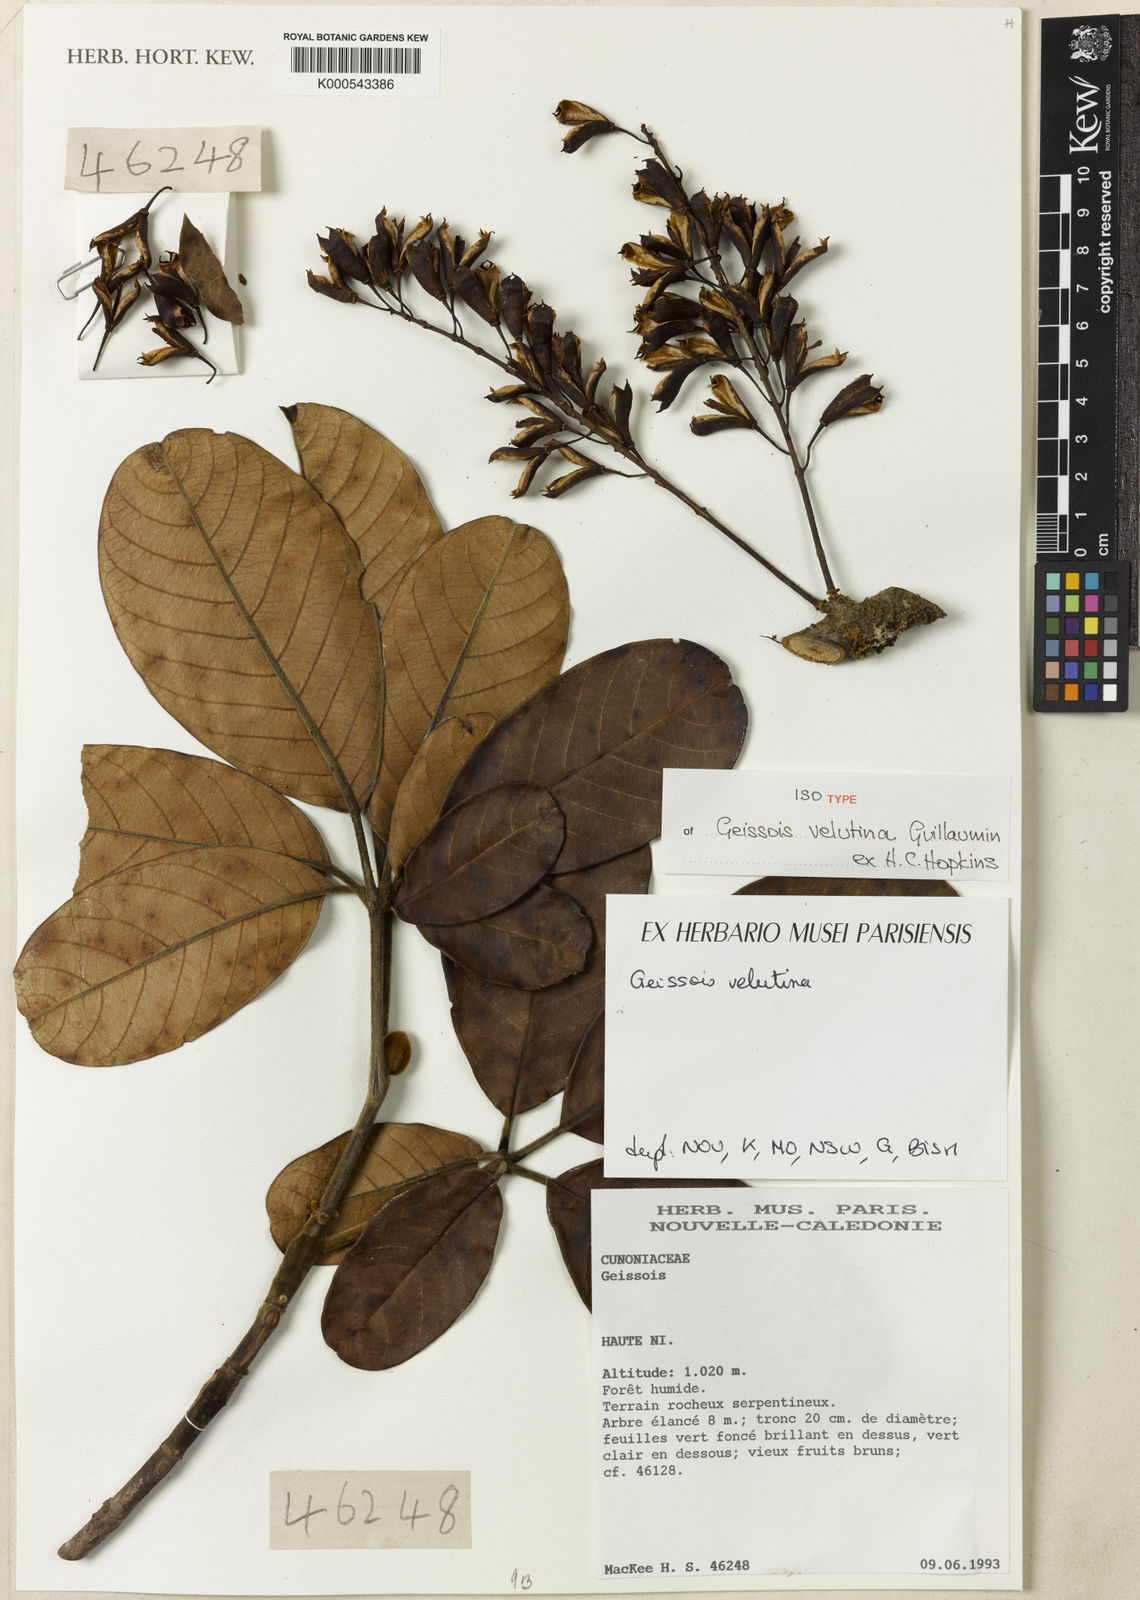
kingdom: Plantae
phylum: Tracheophyta
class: Magnoliopsida
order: Oxalidales
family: Cunoniaceae
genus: Geissois
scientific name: Geissois velutina
